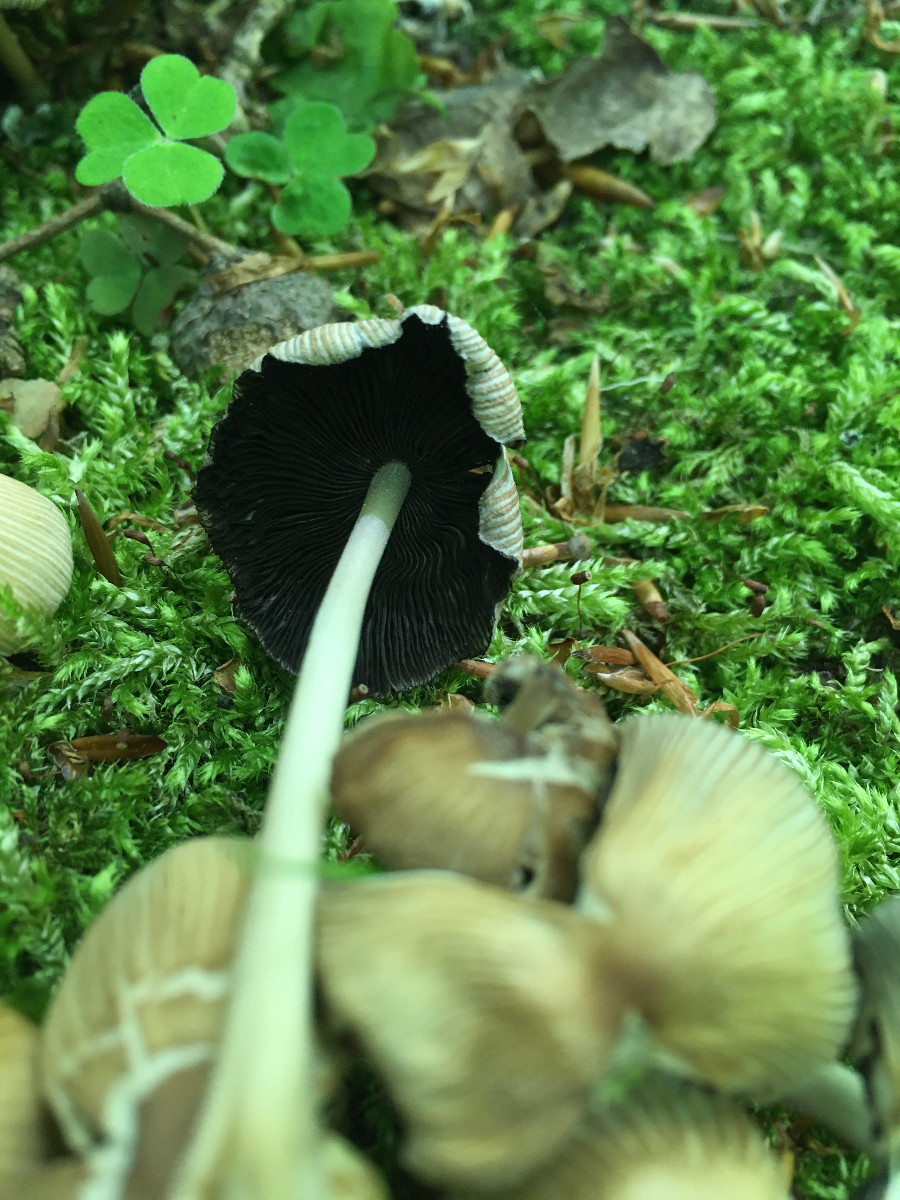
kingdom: Fungi
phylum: Basidiomycota
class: Agaricomycetes
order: Agaricales
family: Psathyrellaceae
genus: Coprinellus
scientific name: Coprinellus micaceus
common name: glimmer-blækhat
